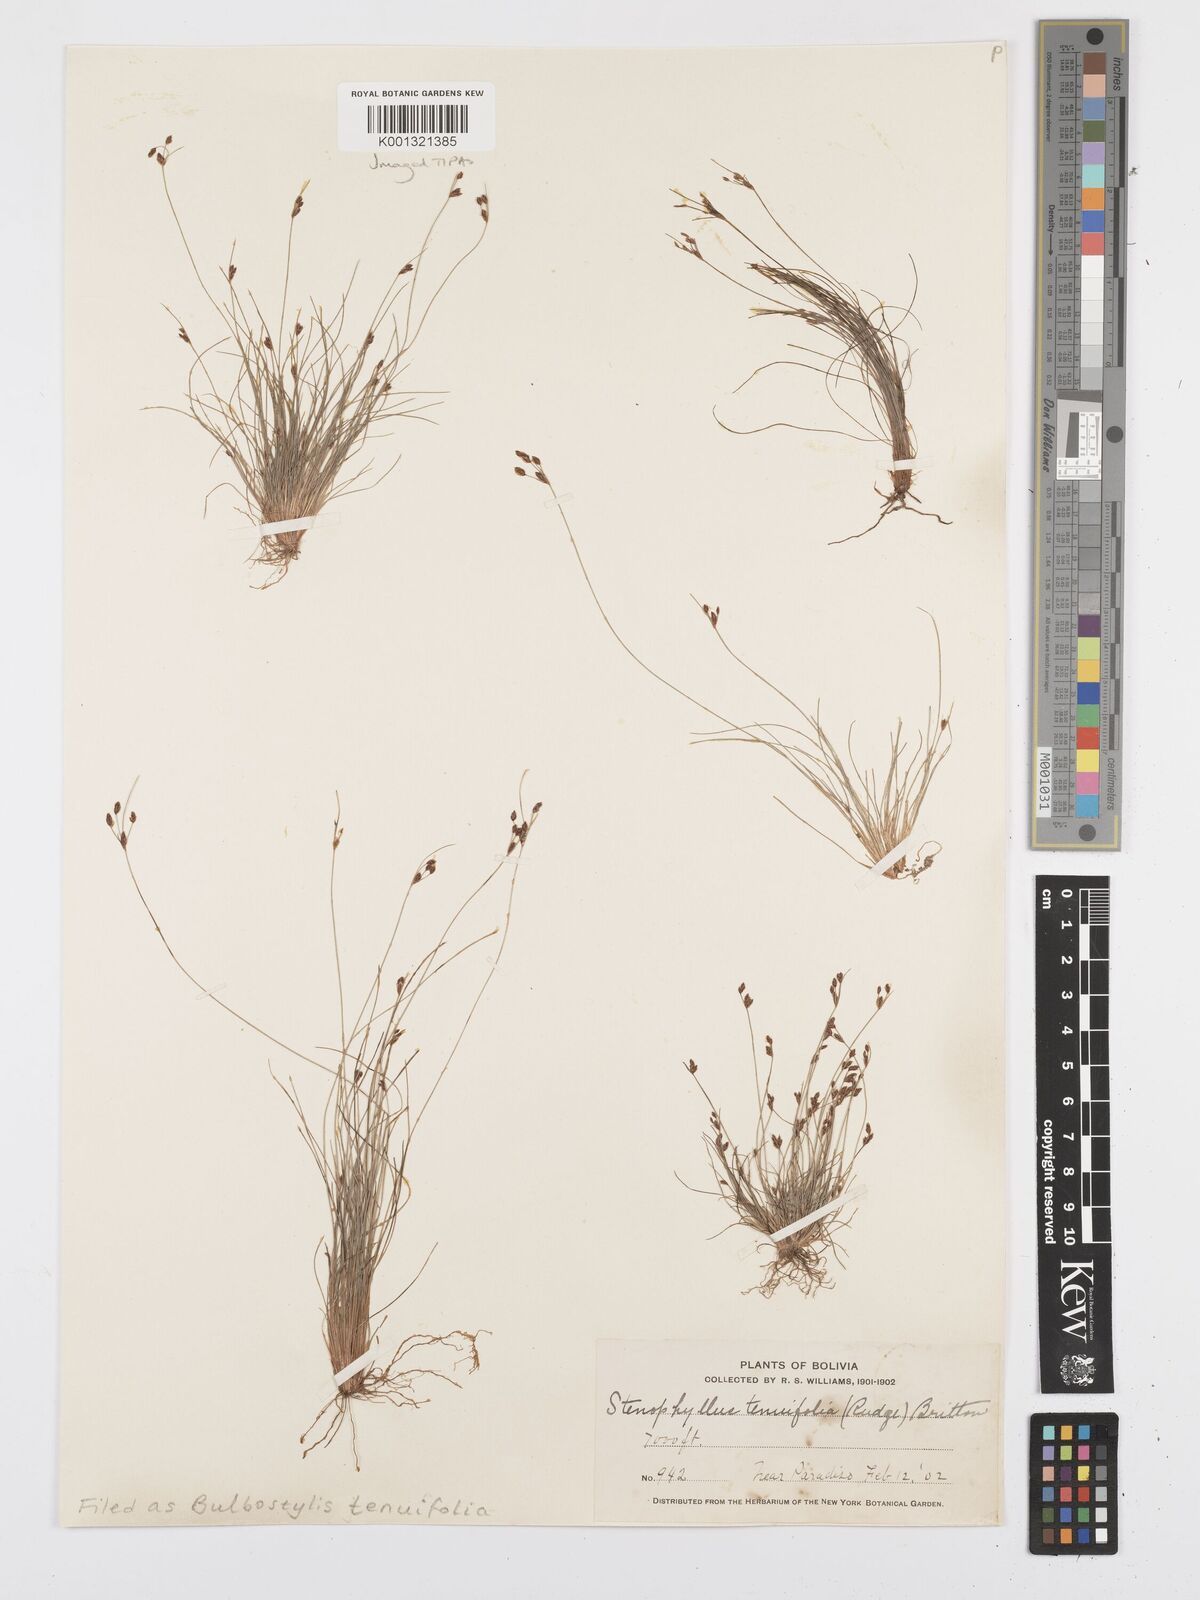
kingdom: Plantae
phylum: Tracheophyta
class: Liliopsida
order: Poales
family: Cyperaceae
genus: Bulbostylis
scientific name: Bulbostylis tenuifolia
